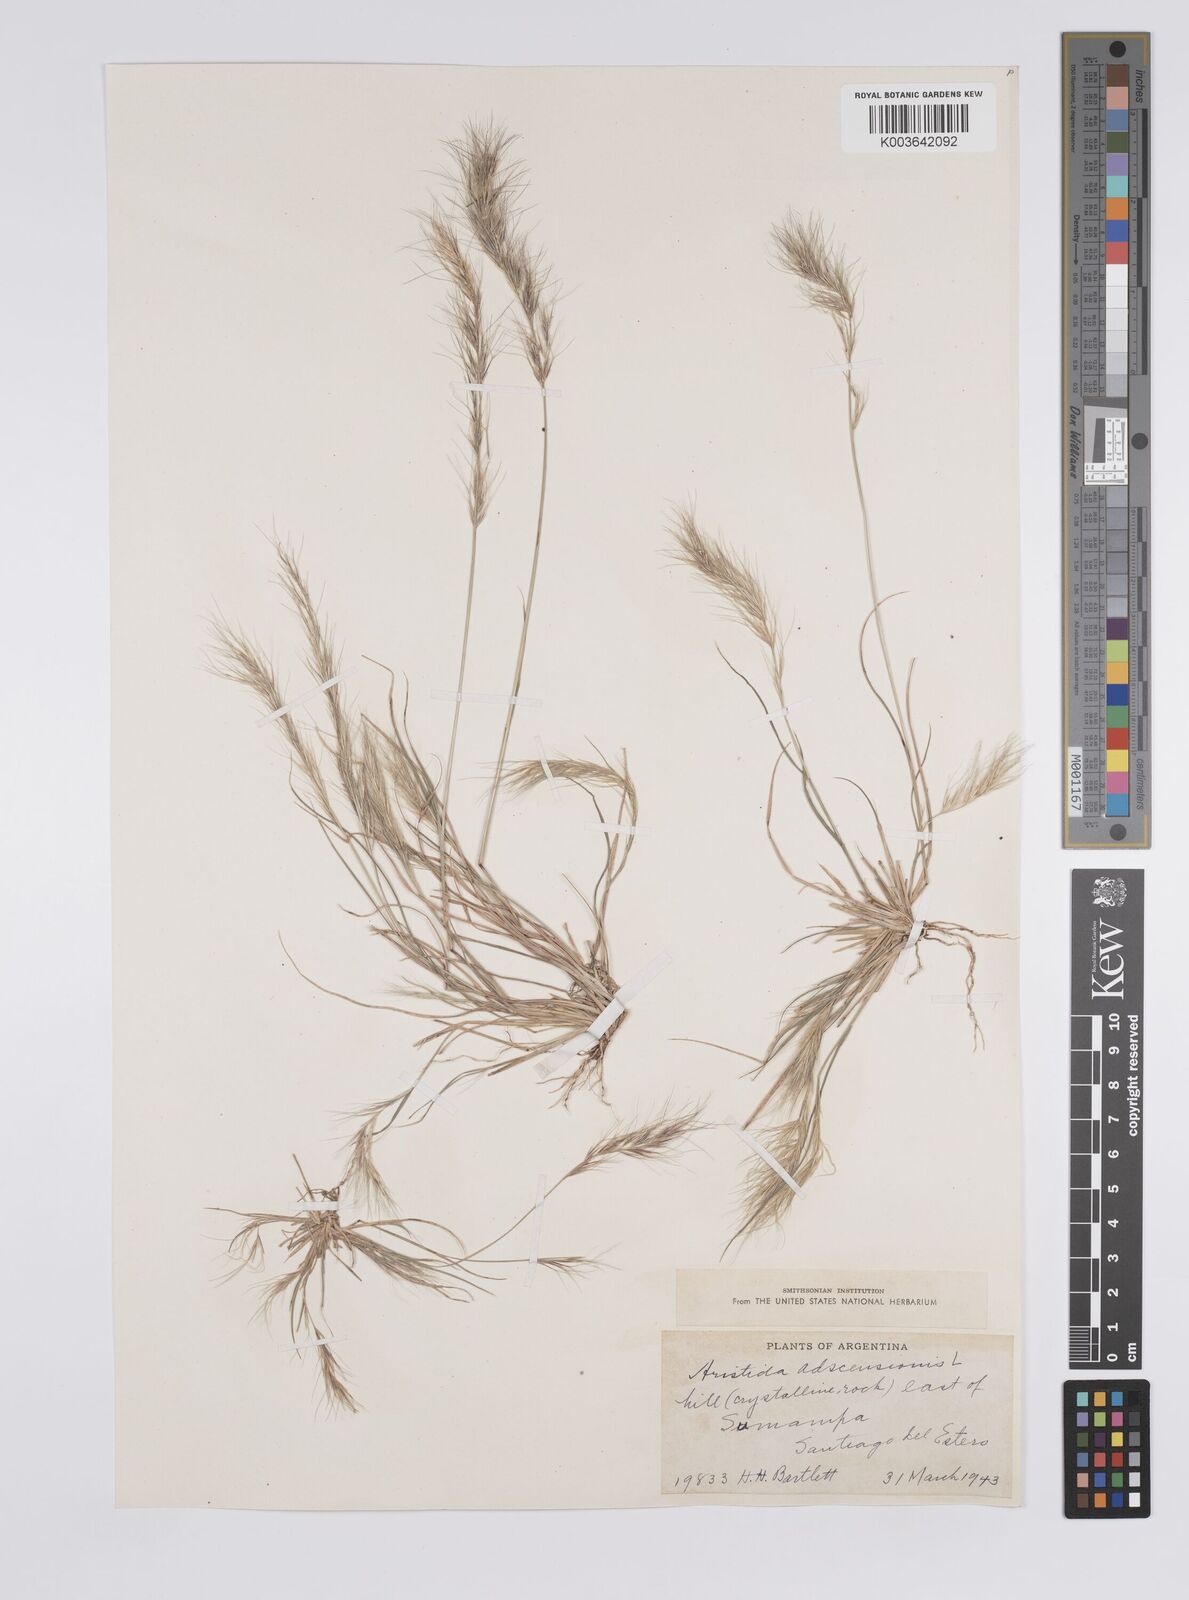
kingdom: Plantae
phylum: Tracheophyta
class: Liliopsida
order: Poales
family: Poaceae
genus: Aristida
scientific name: Aristida adscensionis
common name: Sixweeks threeawn
